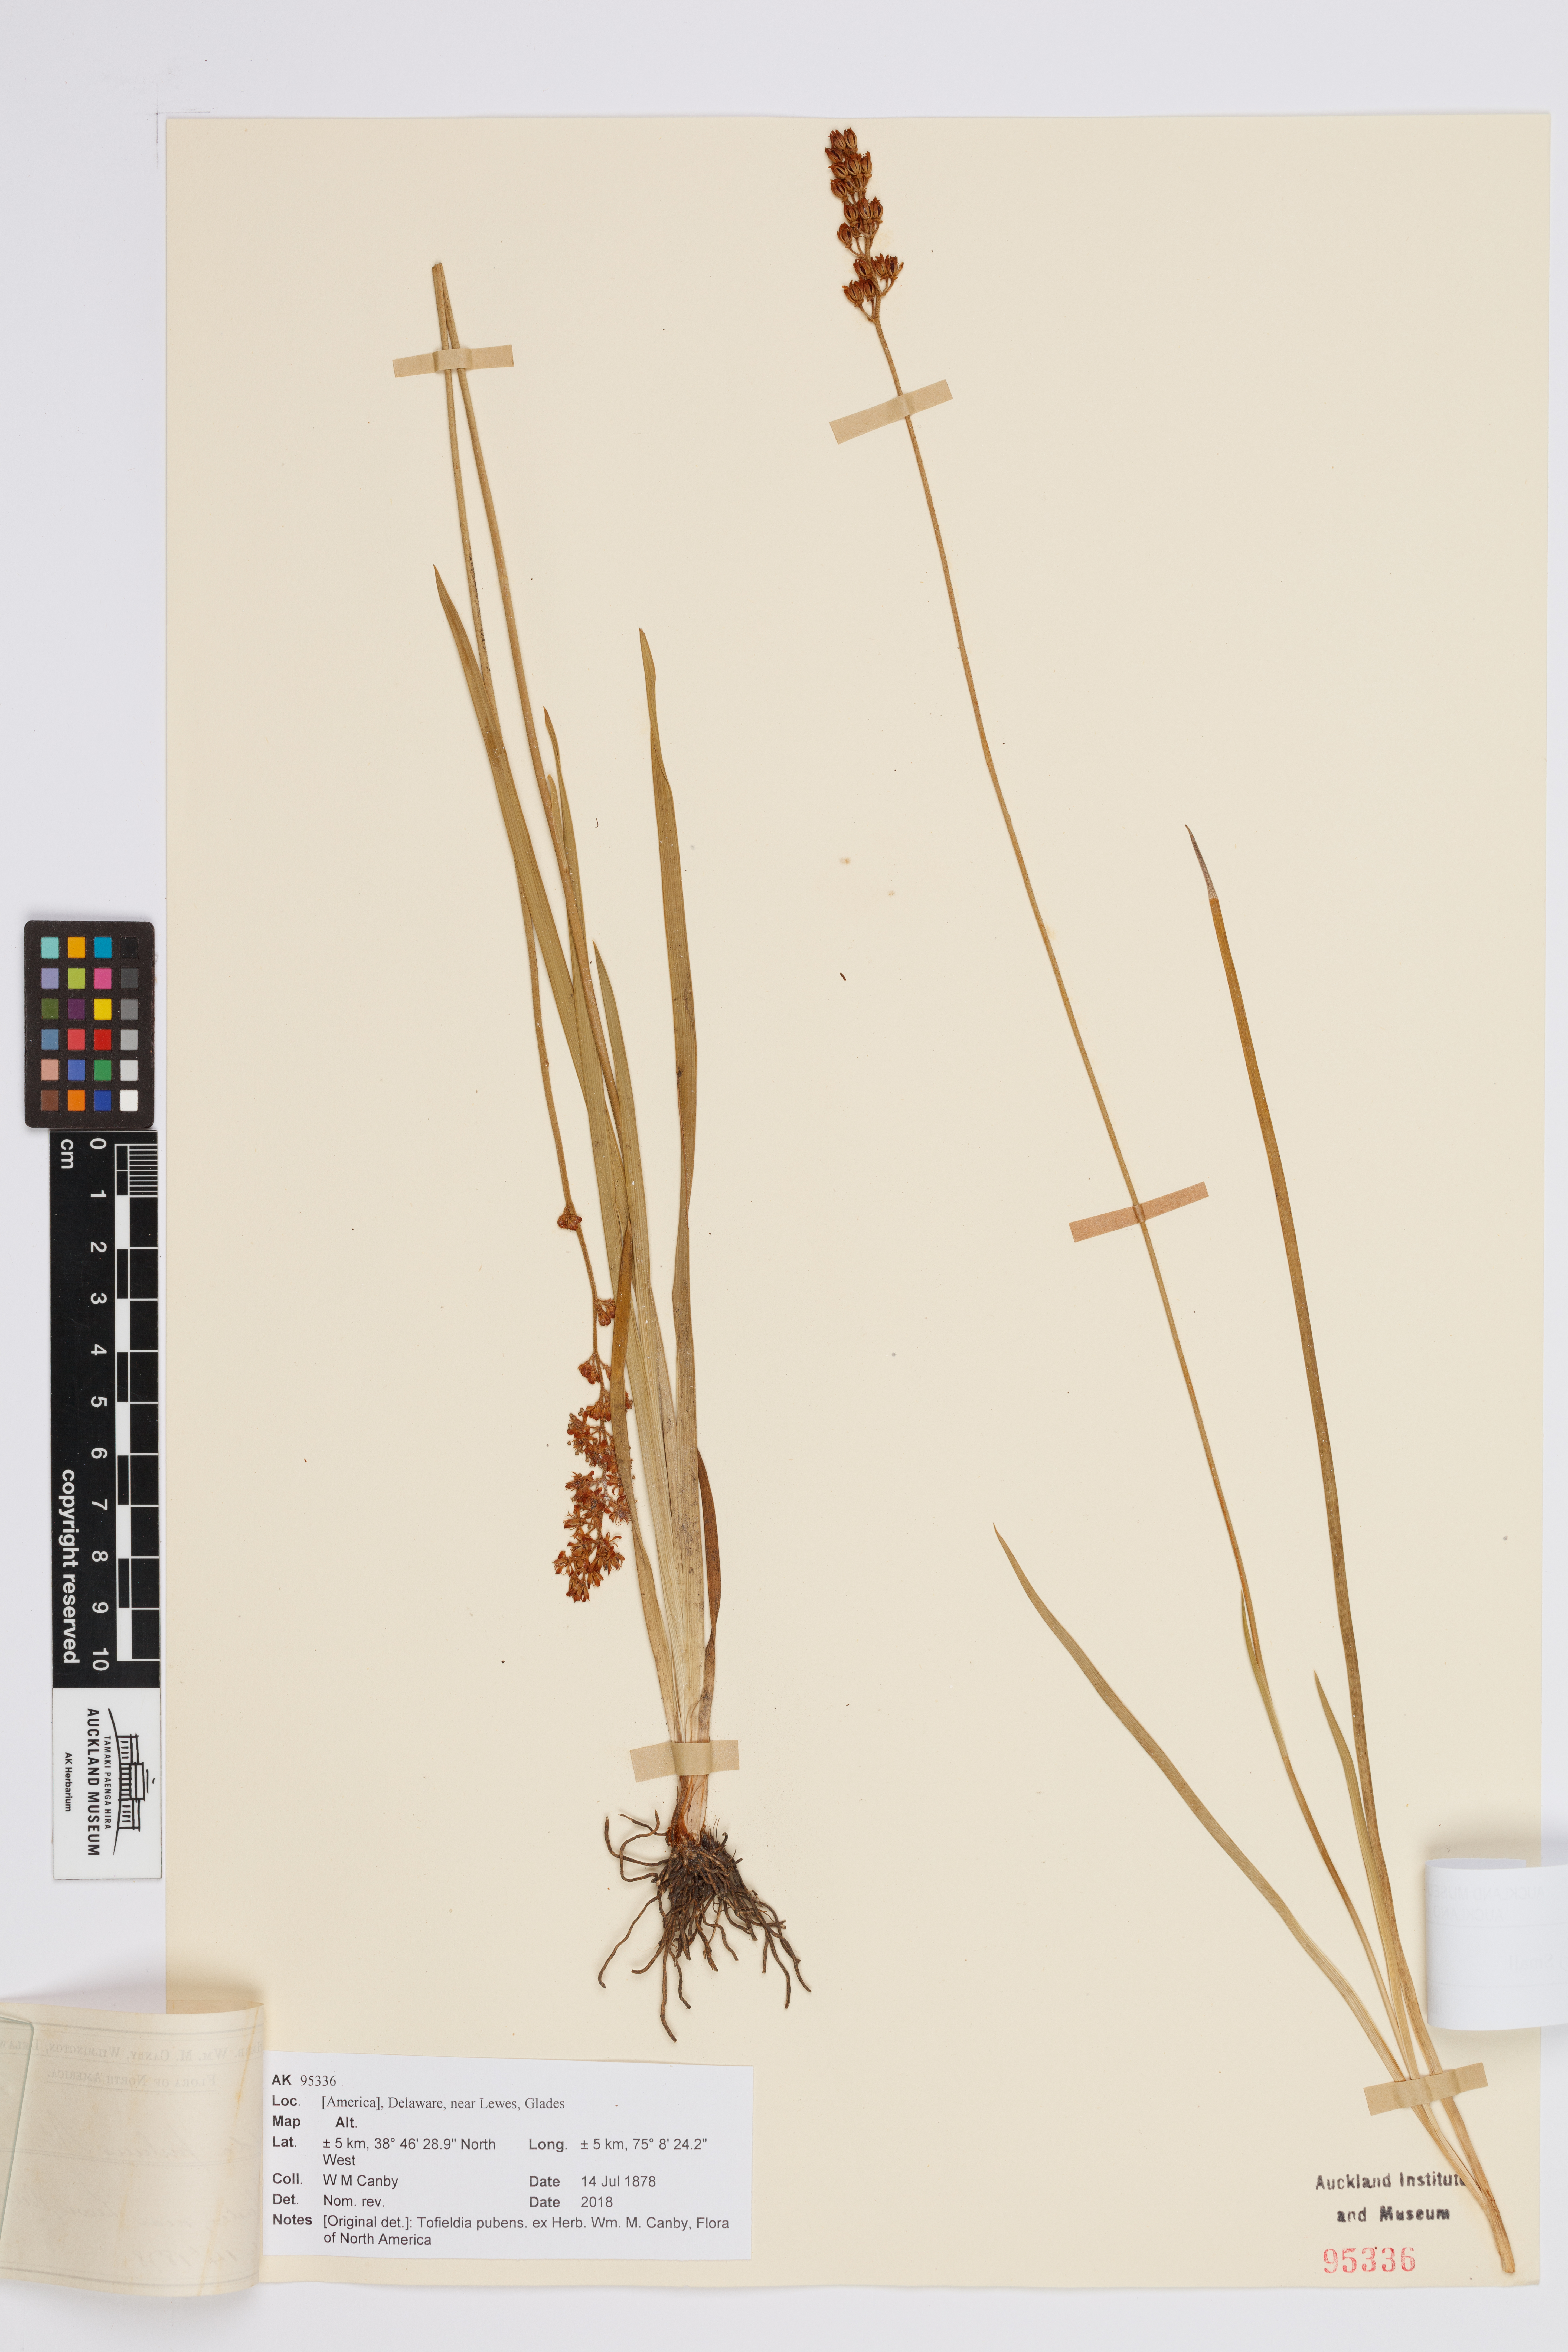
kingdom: Plantae
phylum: Tracheophyta
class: Liliopsida
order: Alismatales
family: Tofieldiaceae
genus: Triantha
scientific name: Triantha racemosa
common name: Coastal false asphodel
